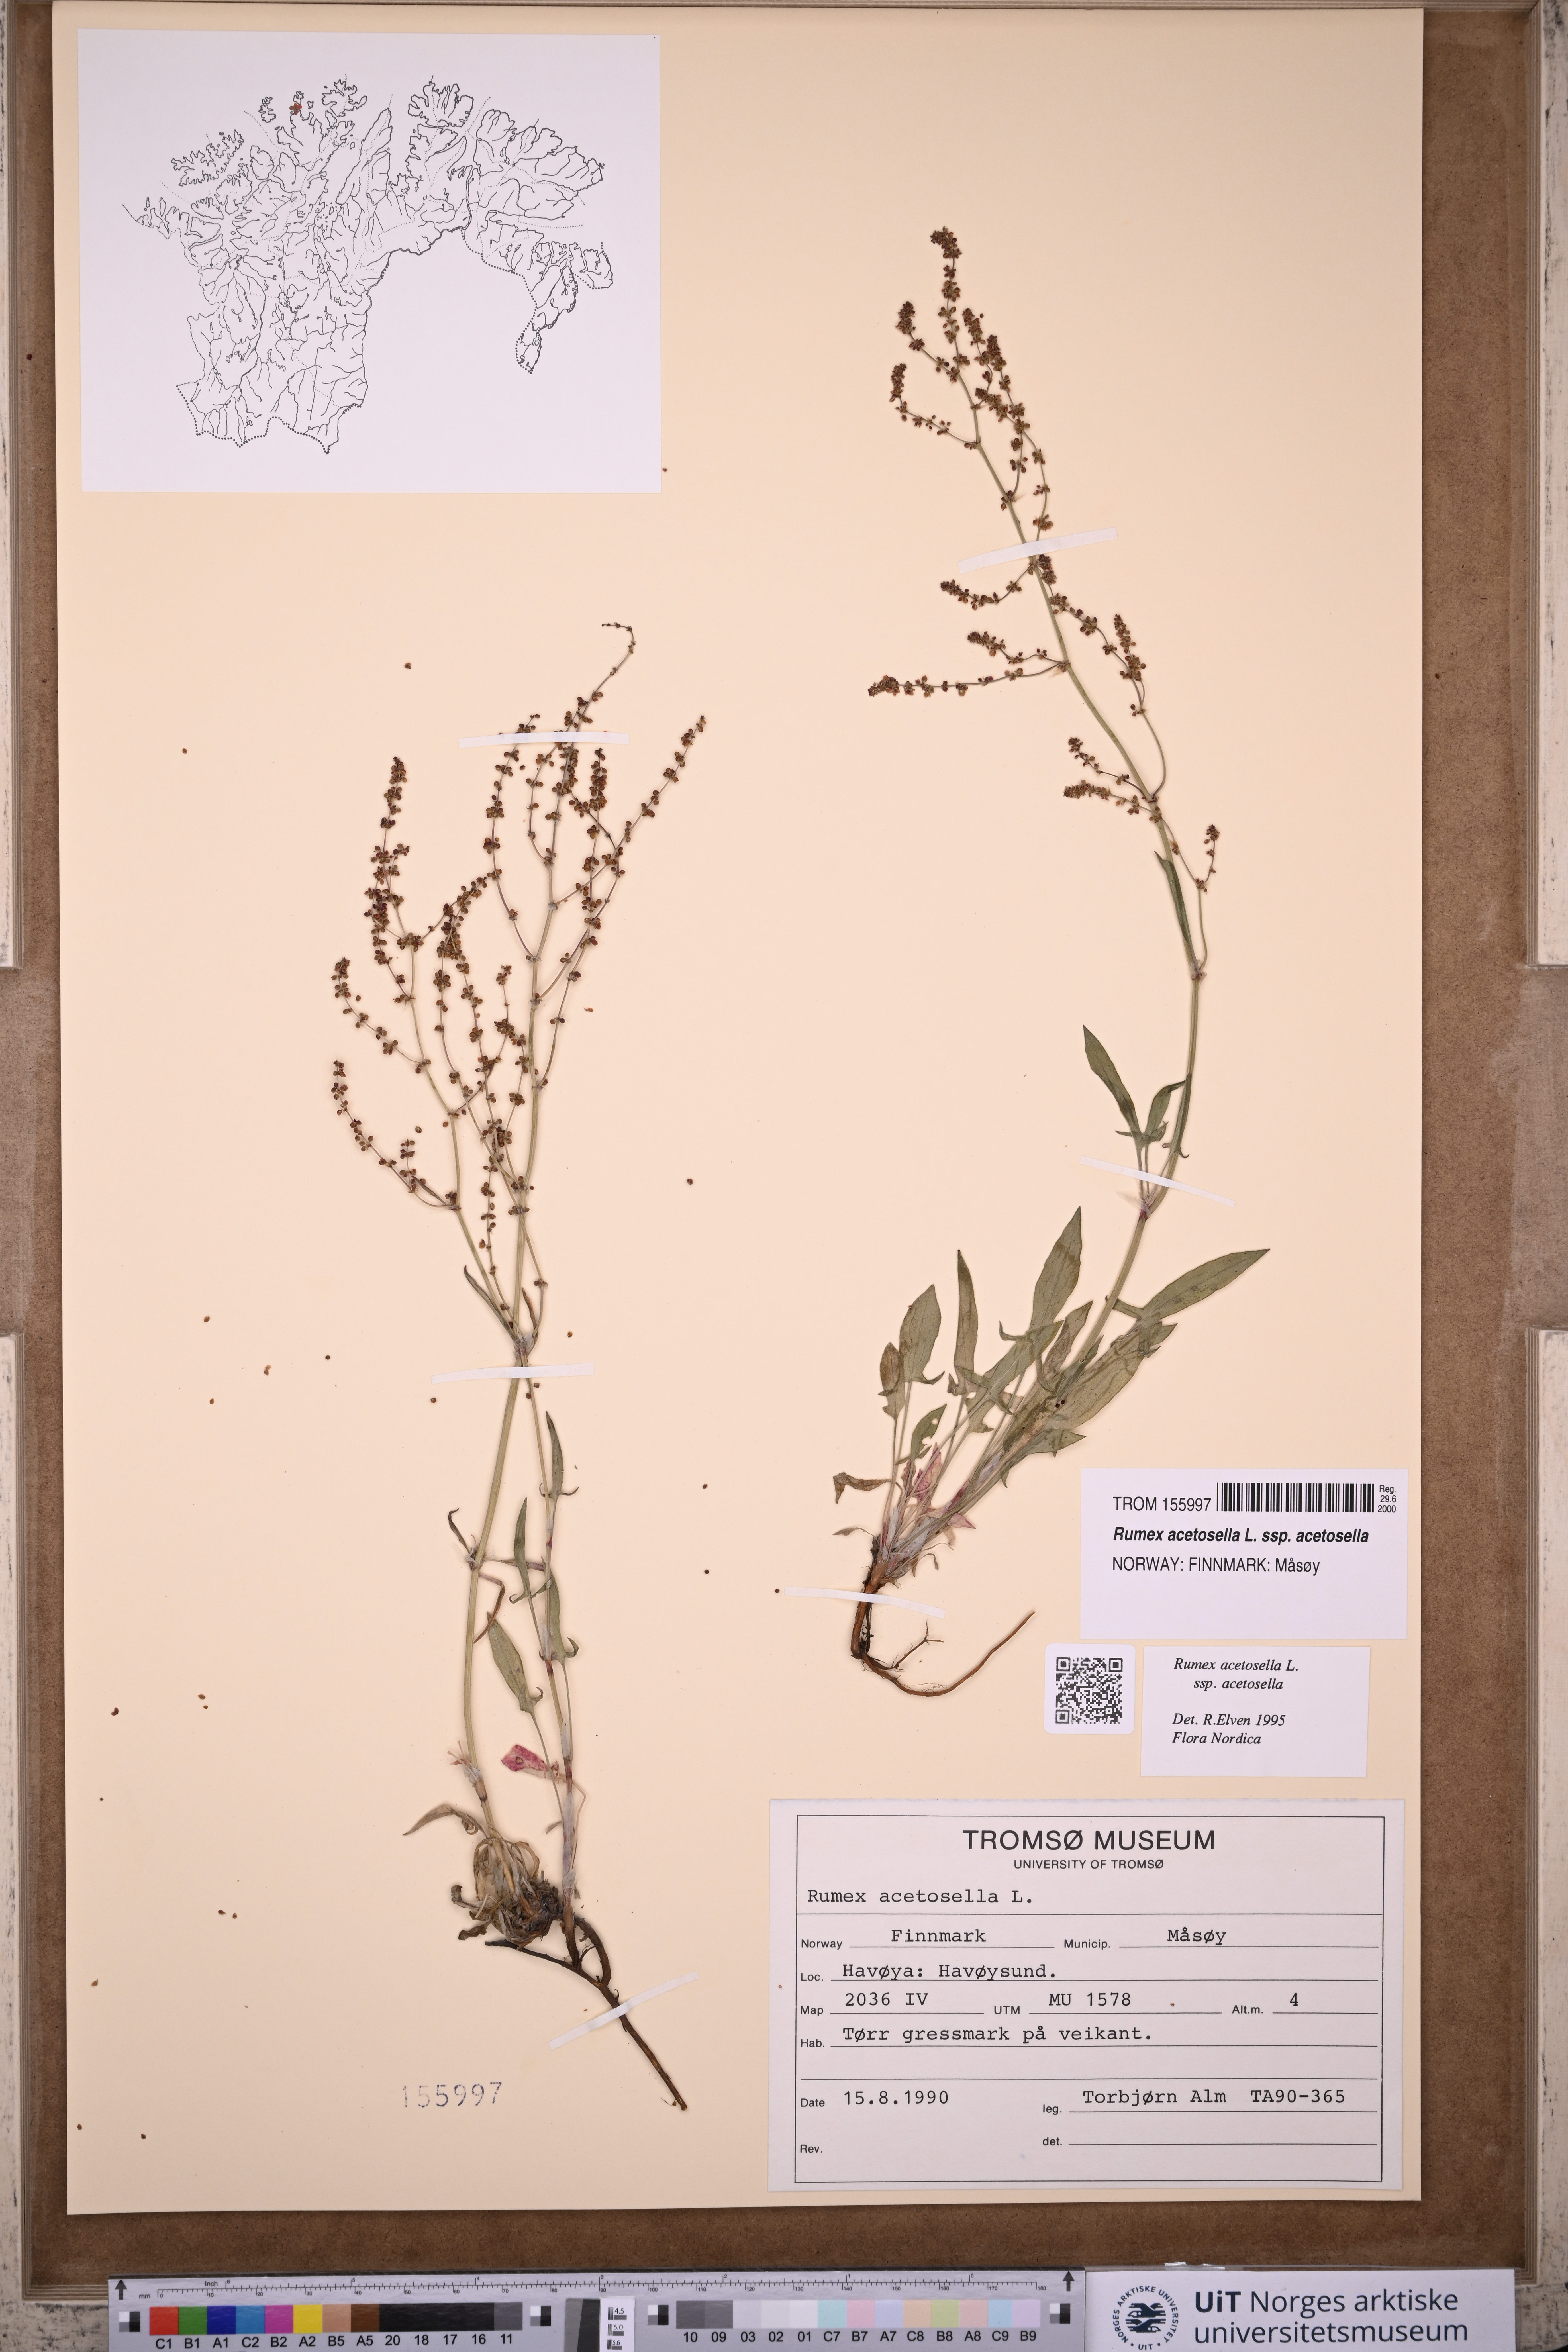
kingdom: Plantae
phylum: Tracheophyta
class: Magnoliopsida
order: Caryophyllales
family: Polygonaceae
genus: Rumex
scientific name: Rumex acetosella
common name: Common sheep sorrel
